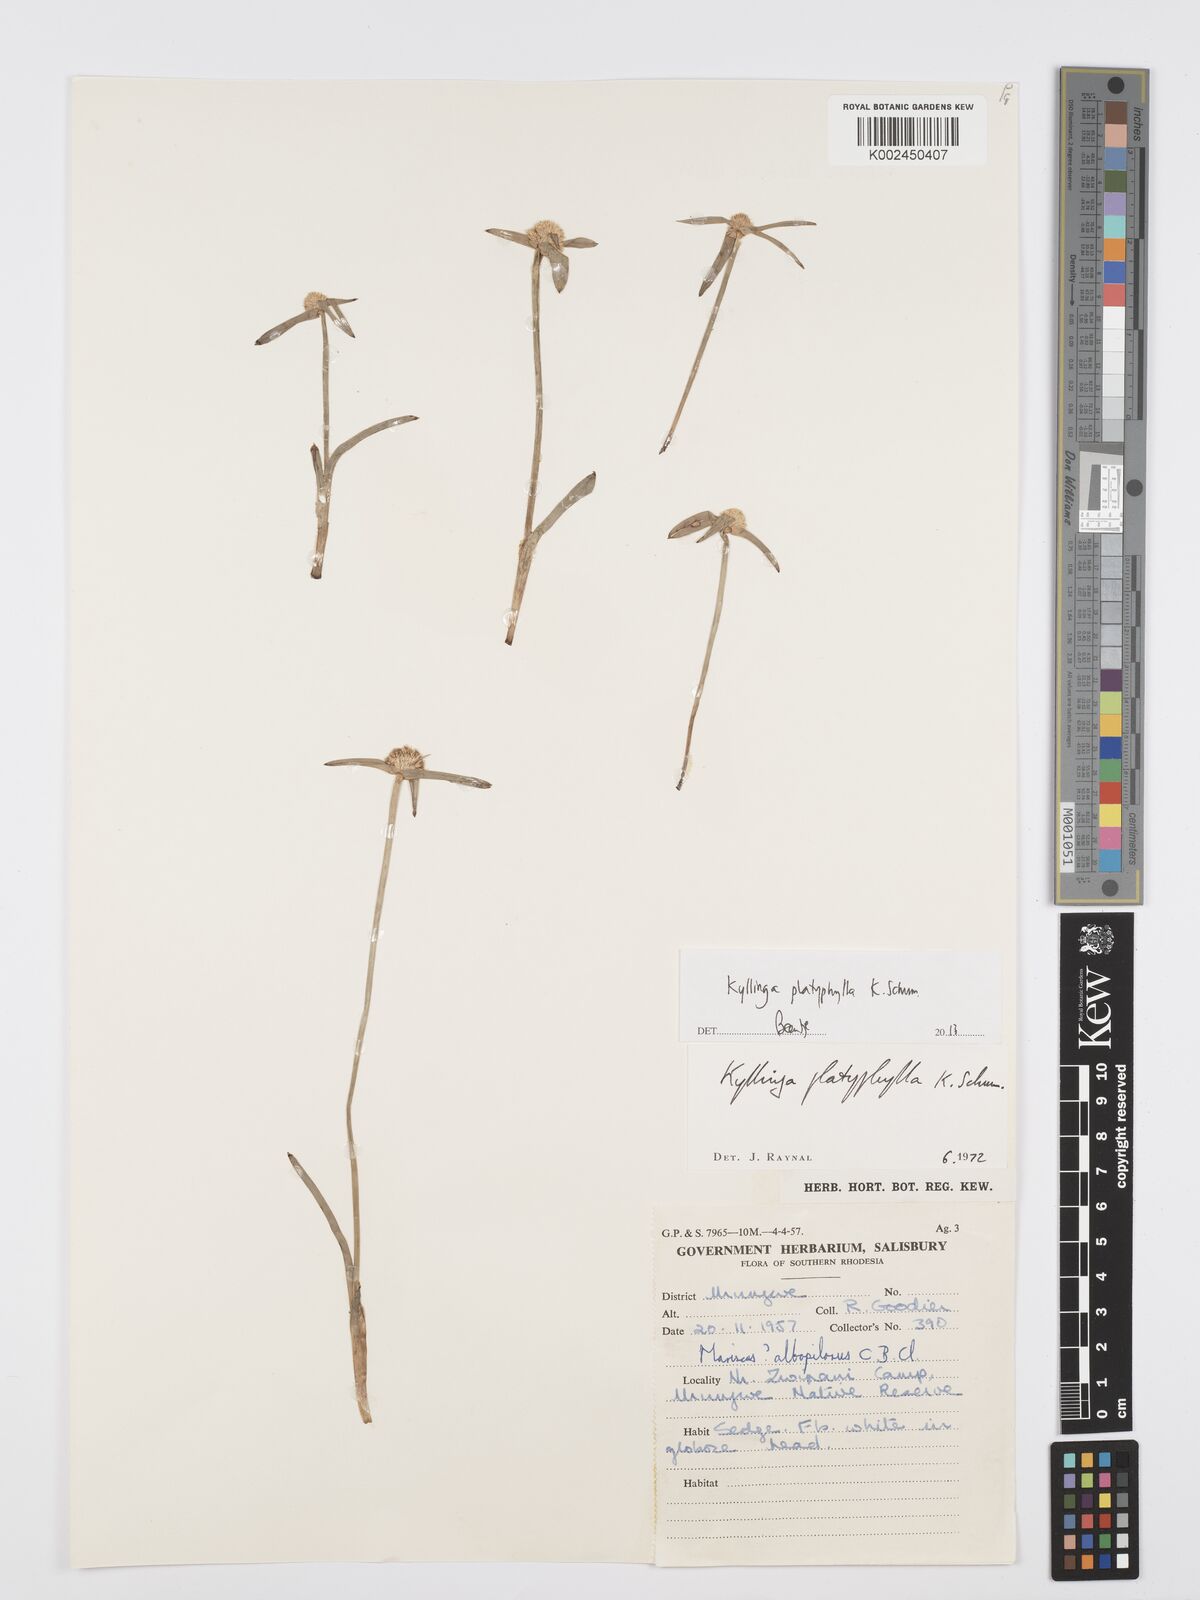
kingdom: Plantae
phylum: Tracheophyta
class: Liliopsida
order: Poales
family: Cyperaceae
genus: Cyperus
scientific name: Cyperus
